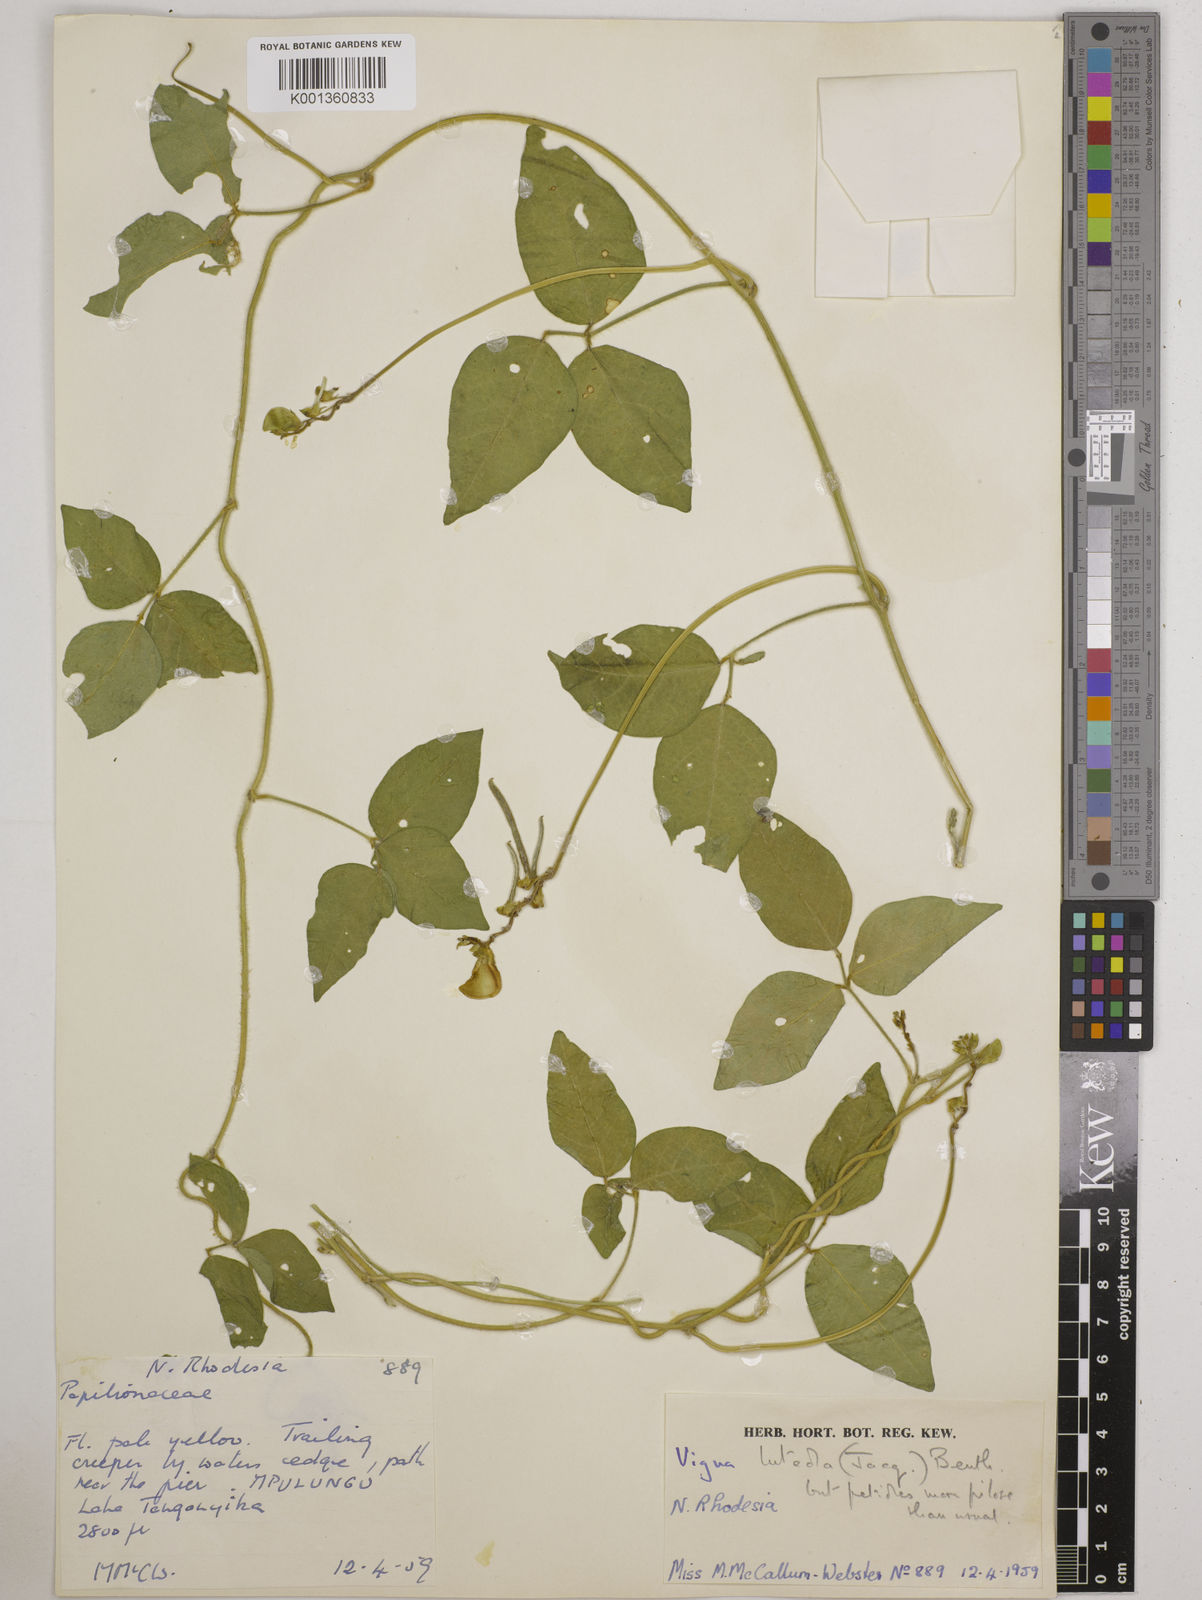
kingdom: Plantae
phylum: Tracheophyta
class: Magnoliopsida
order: Fabales
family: Fabaceae
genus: Vigna
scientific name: Vigna luteola
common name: Hairypod cowpea
